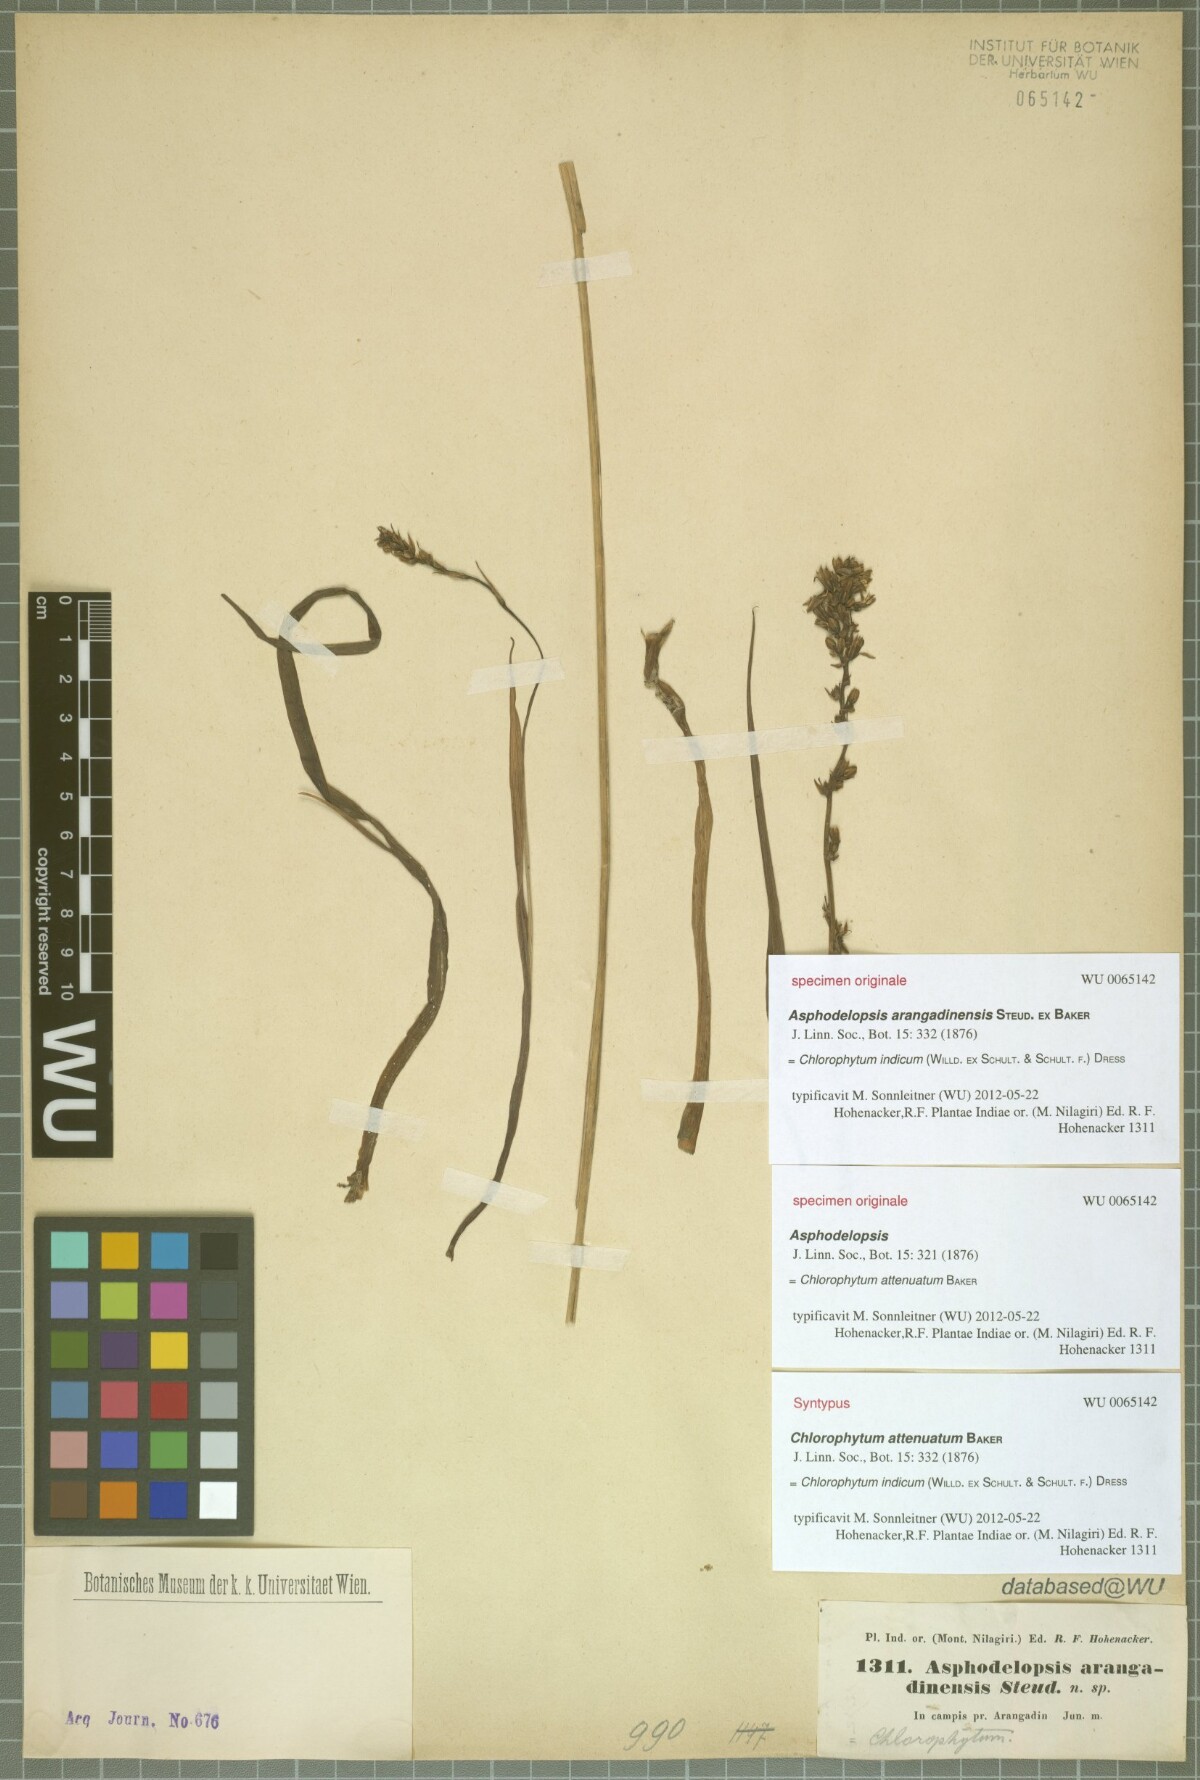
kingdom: Plantae
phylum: Tracheophyta
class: Liliopsida
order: Asparagales
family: Asparagaceae
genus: Chlorophytum
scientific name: Chlorophytum indicum
